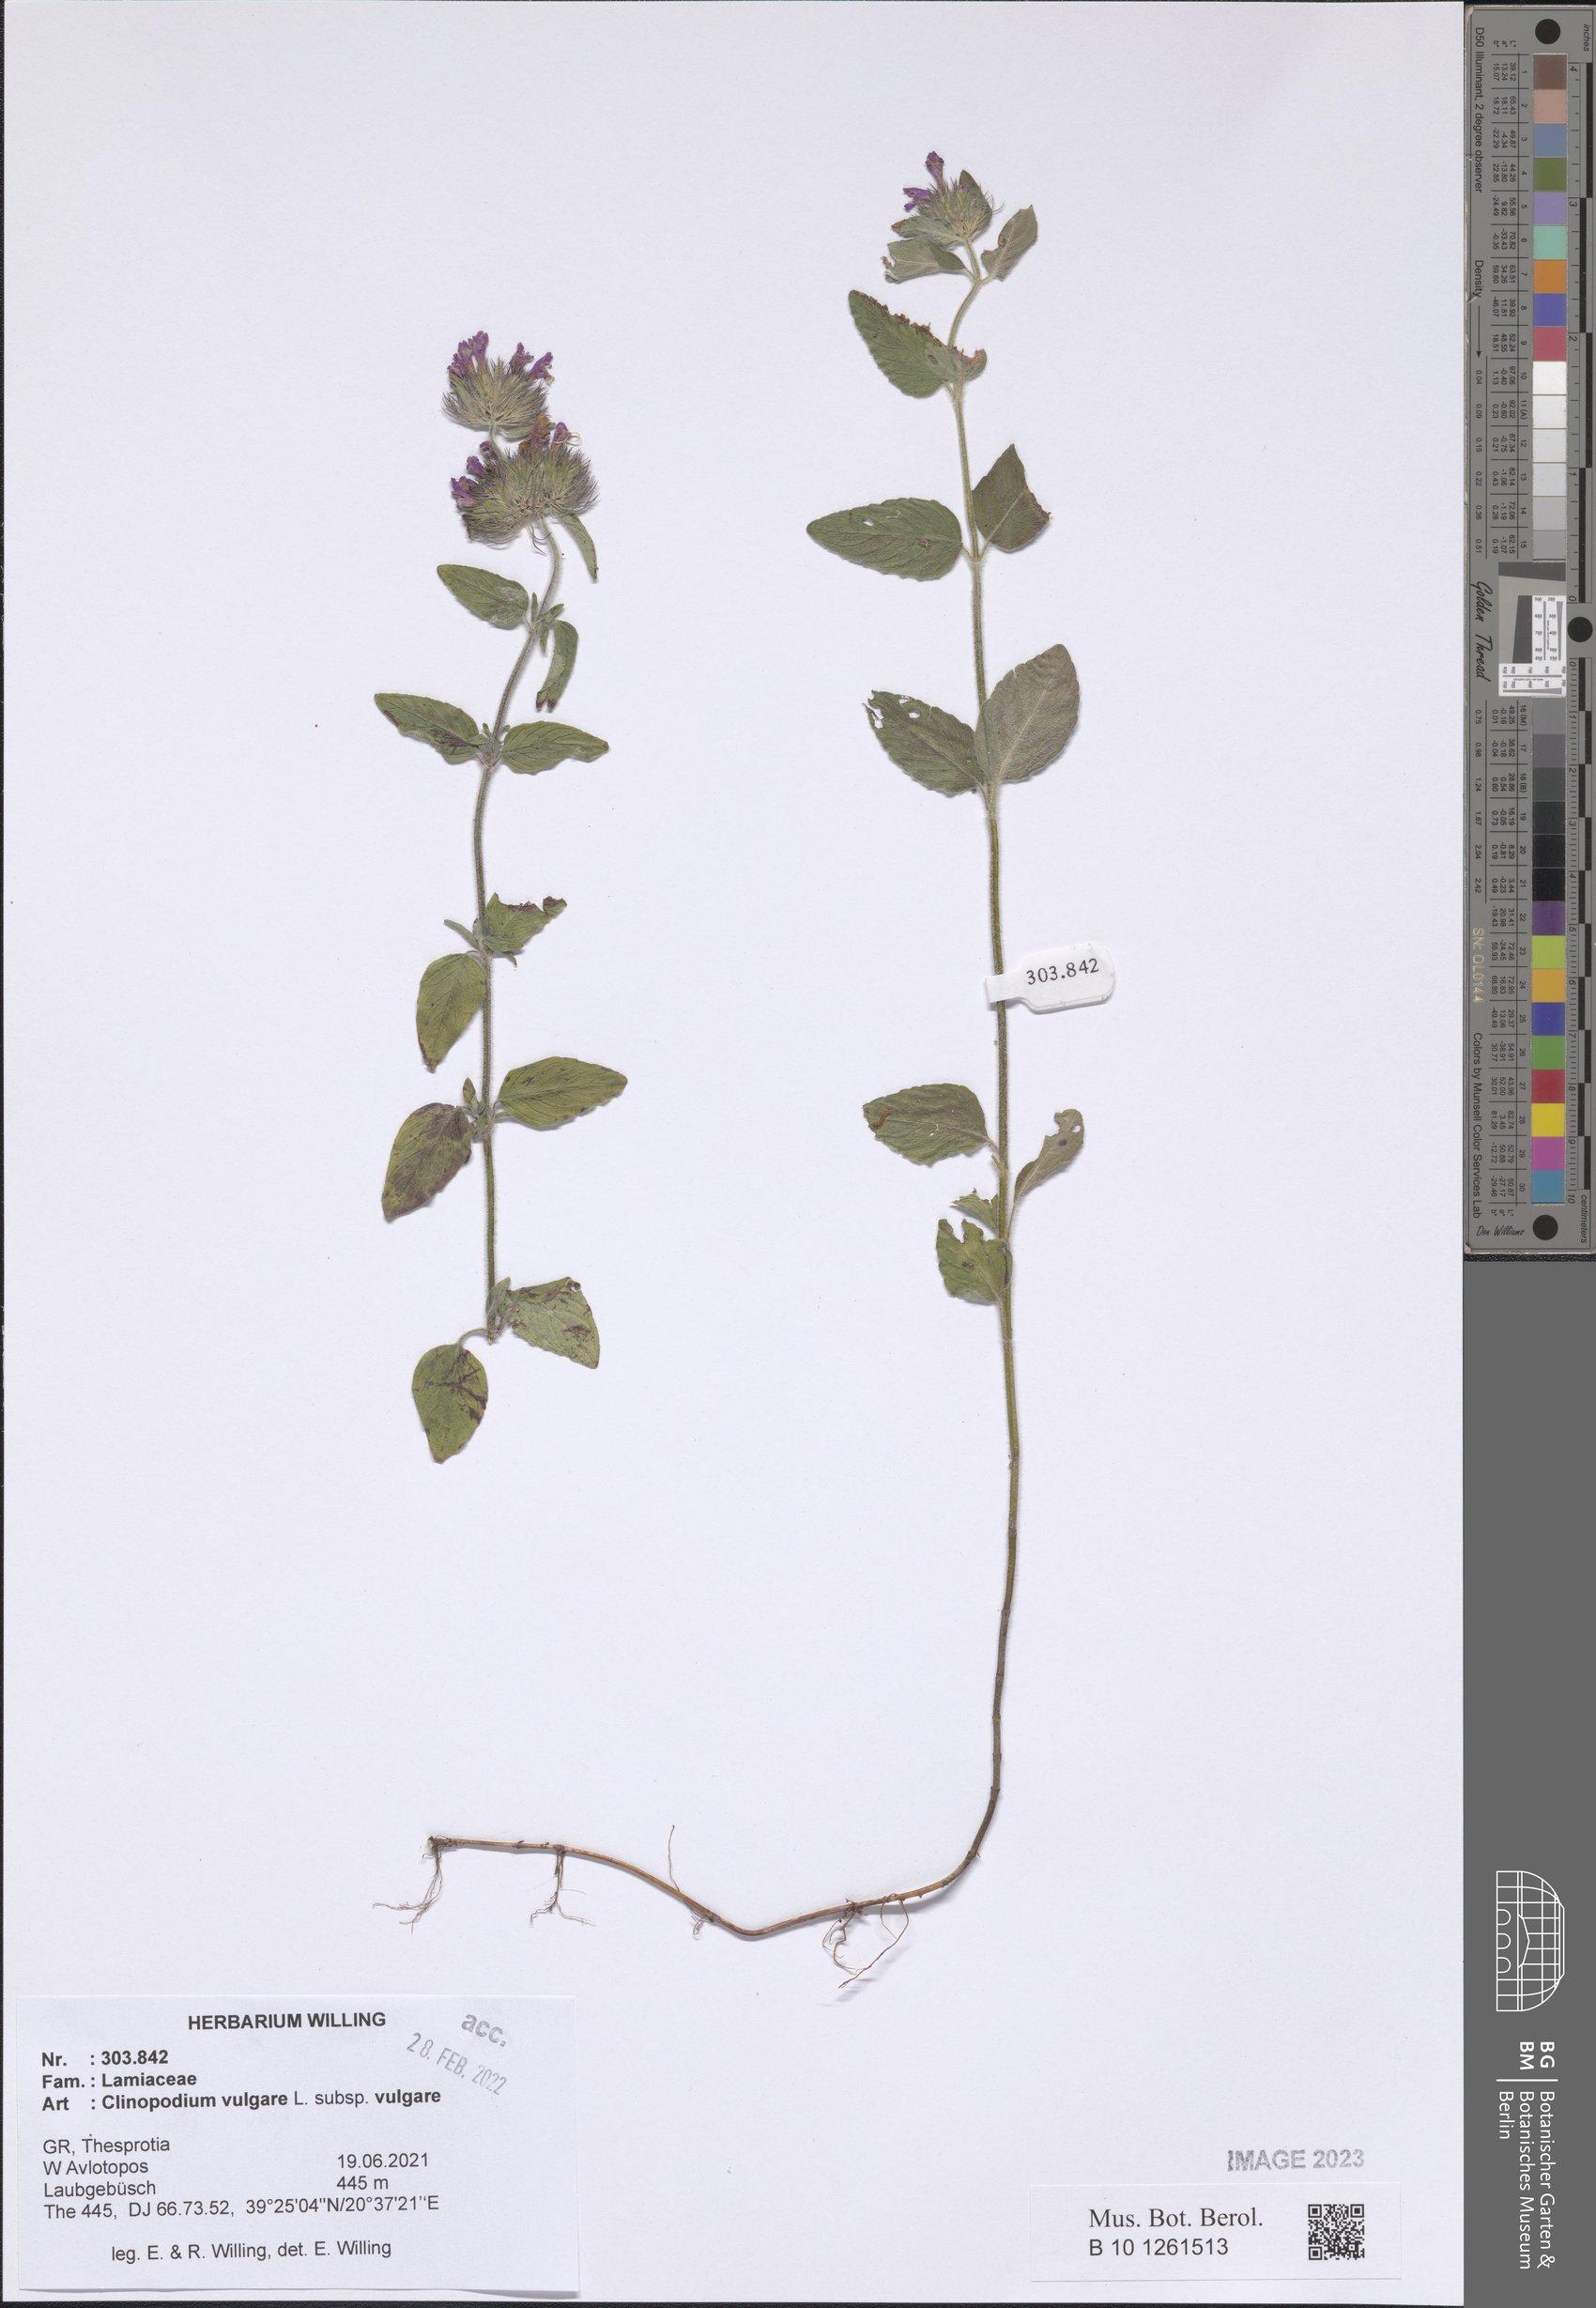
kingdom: Plantae
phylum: Tracheophyta
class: Magnoliopsida
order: Lamiales
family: Lamiaceae
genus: Clinopodium
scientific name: Clinopodium vulgare
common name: Wild basil
